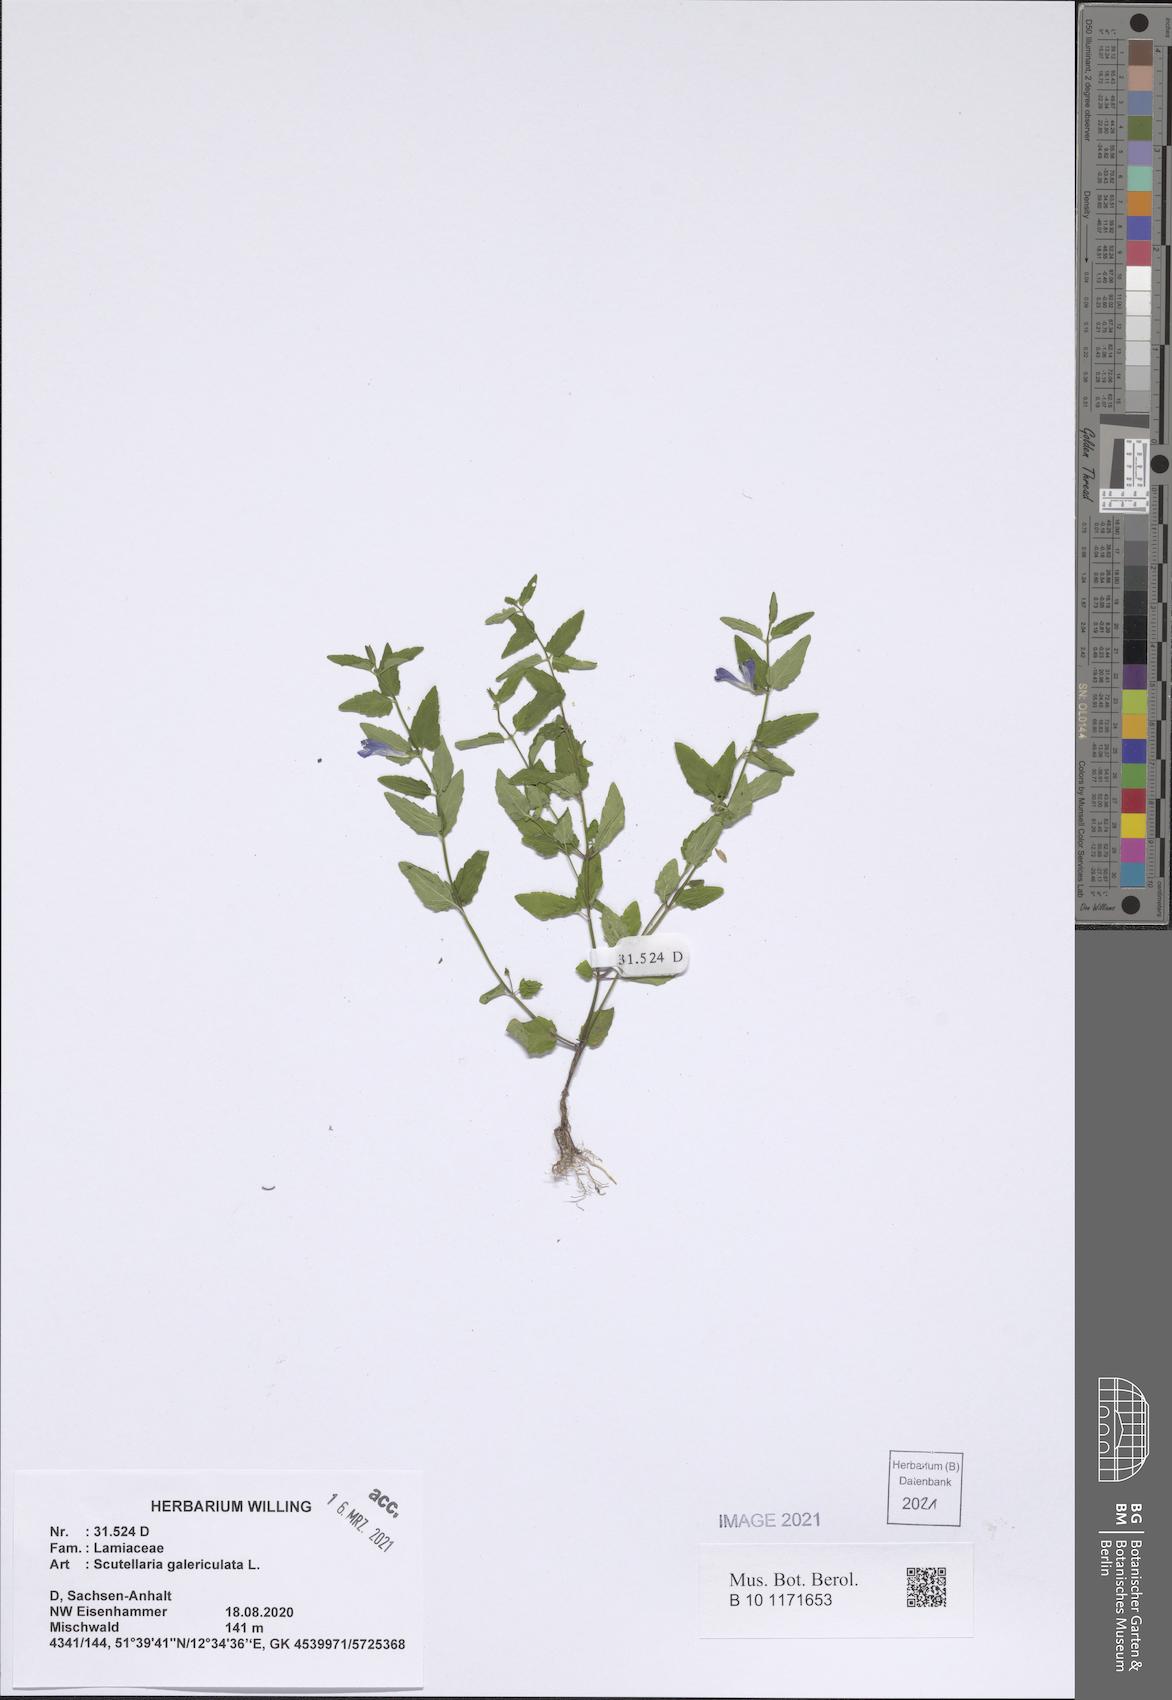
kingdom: Plantae
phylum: Tracheophyta
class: Magnoliopsida
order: Lamiales
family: Lamiaceae
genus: Scutellaria
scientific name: Scutellaria galericulata
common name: Skullcap
